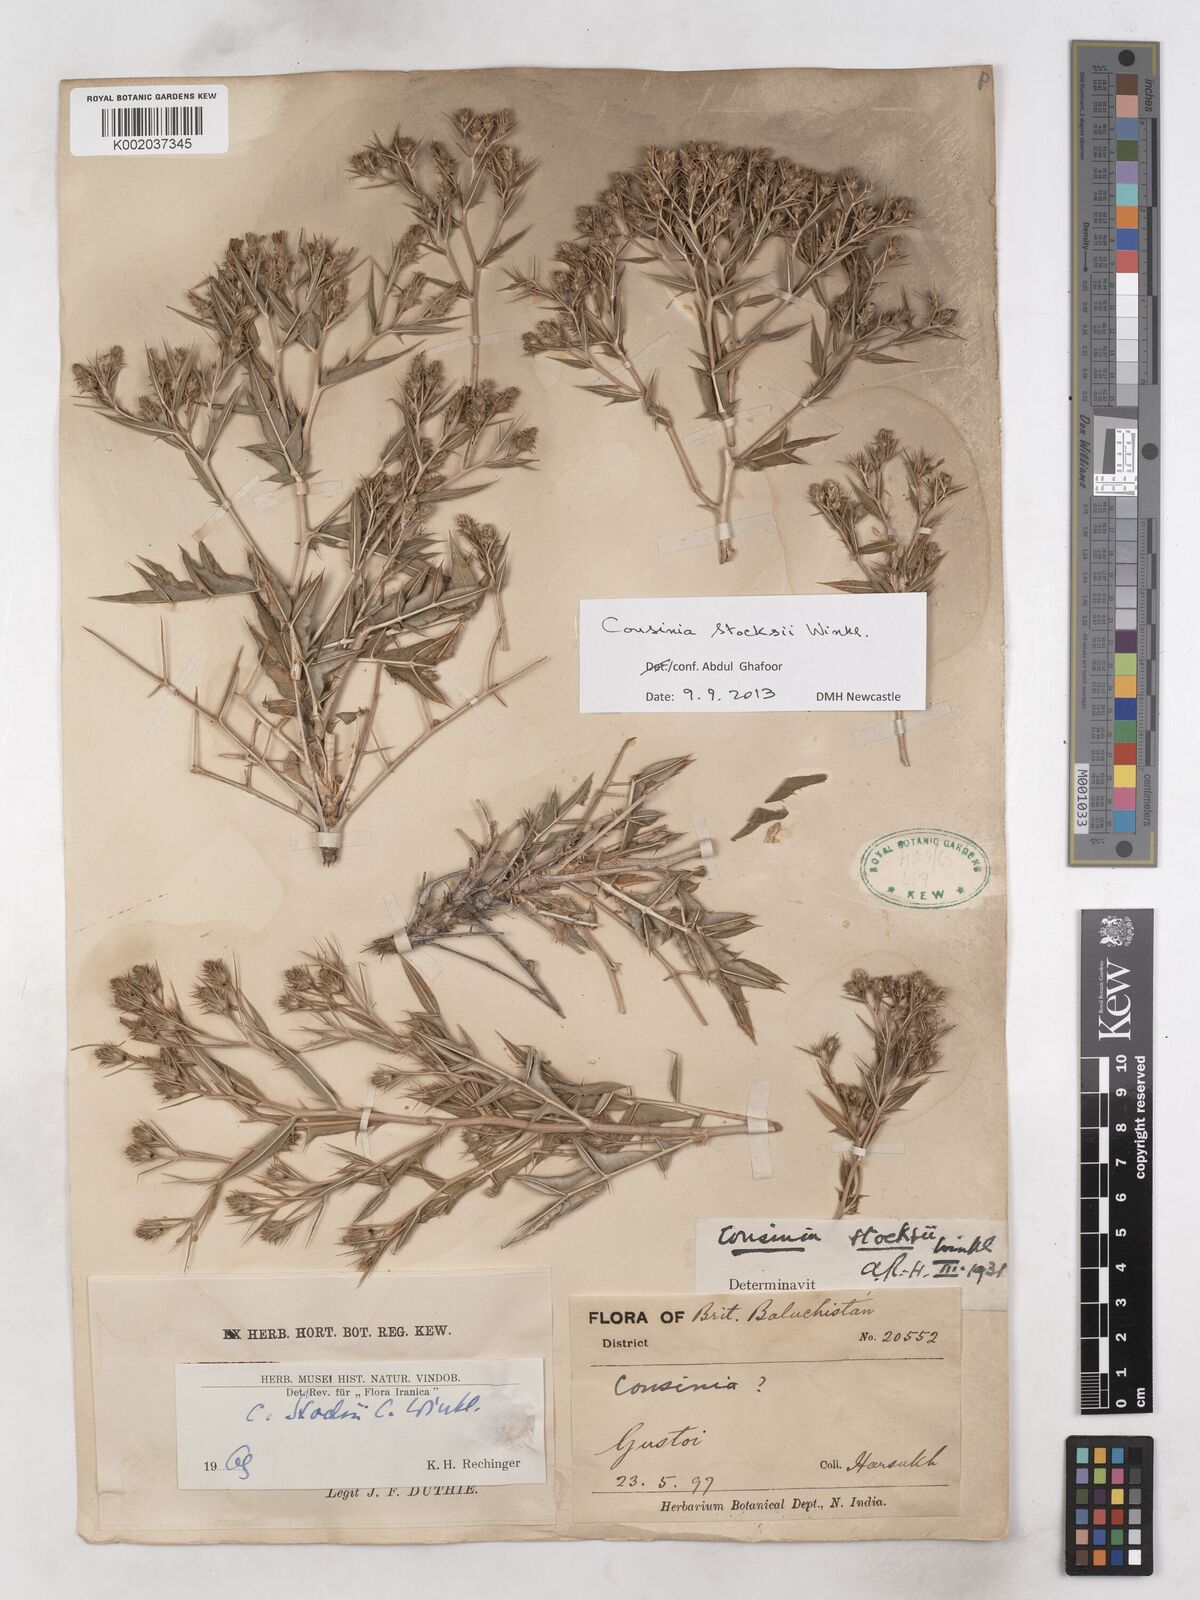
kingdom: Plantae
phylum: Tracheophyta
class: Magnoliopsida
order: Asterales
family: Asteraceae
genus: Cousinia
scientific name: Cousinia stocksii
